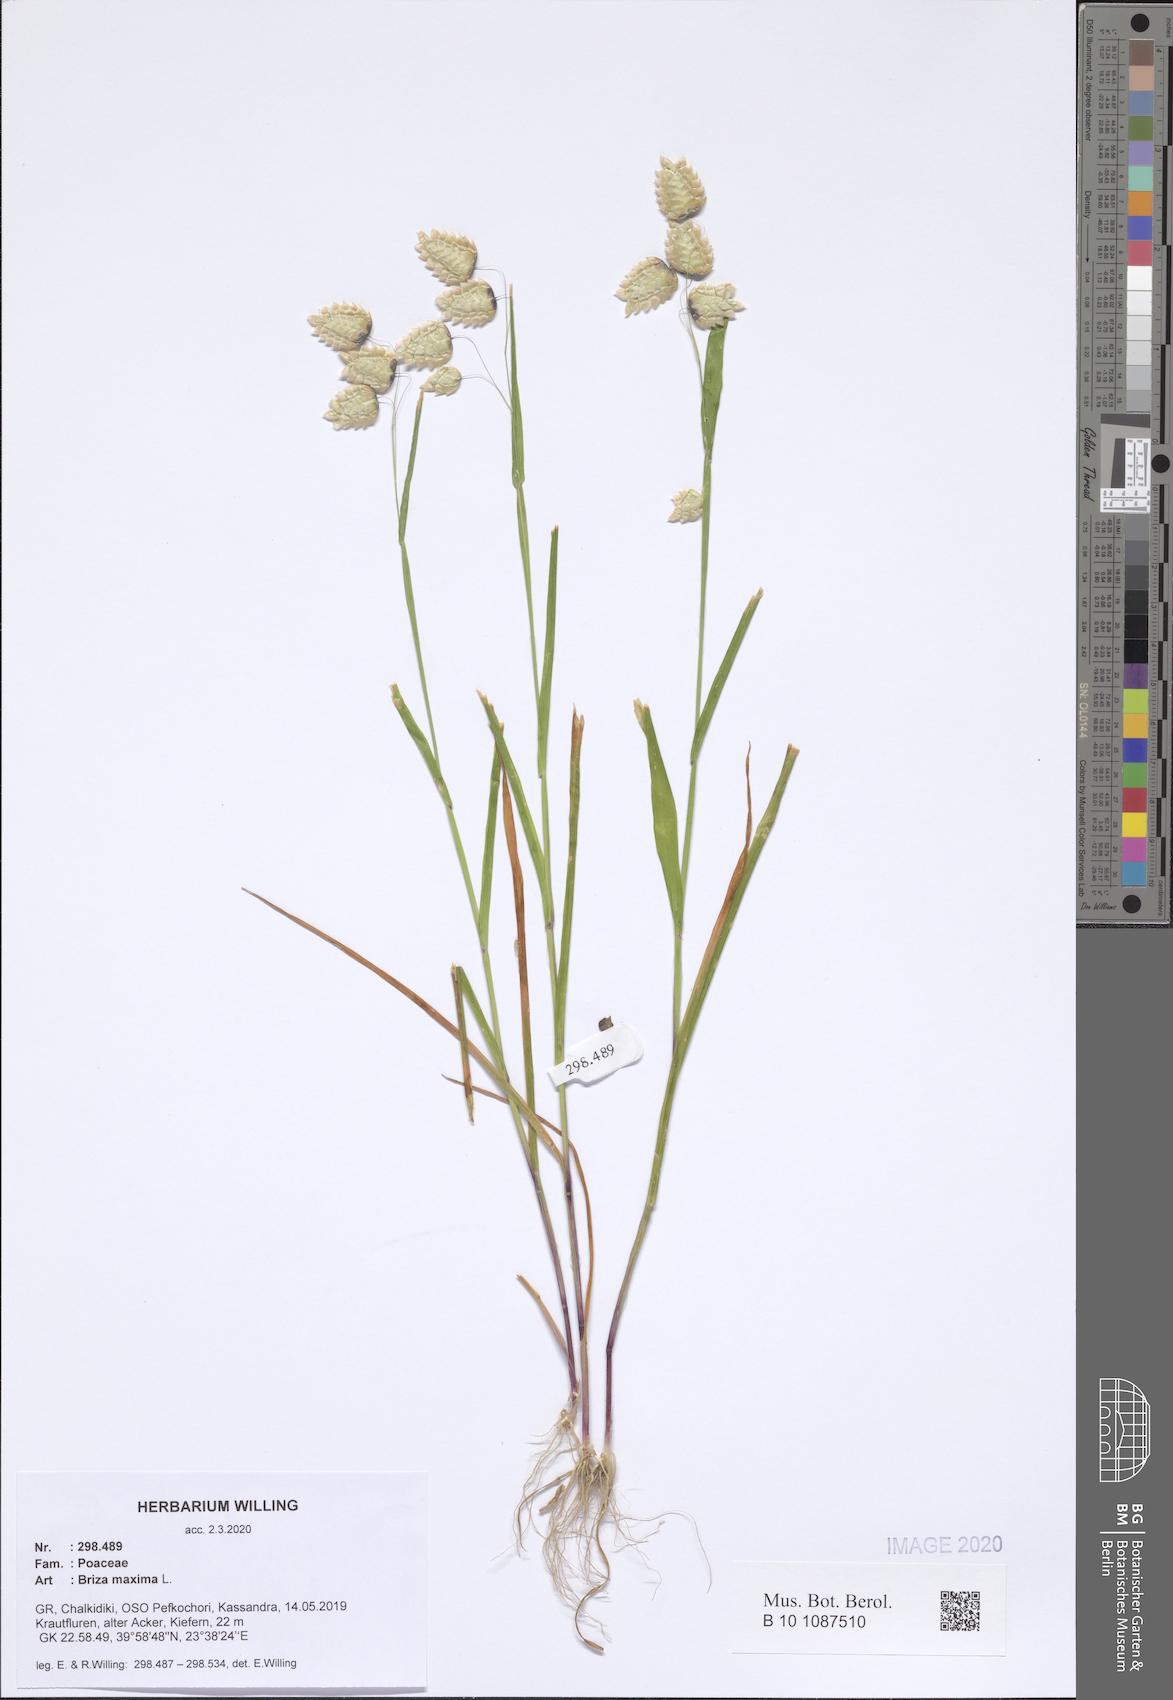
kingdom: Plantae
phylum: Tracheophyta
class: Liliopsida
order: Poales
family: Poaceae
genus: Briza
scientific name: Briza maxima
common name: Big quakinggrass
